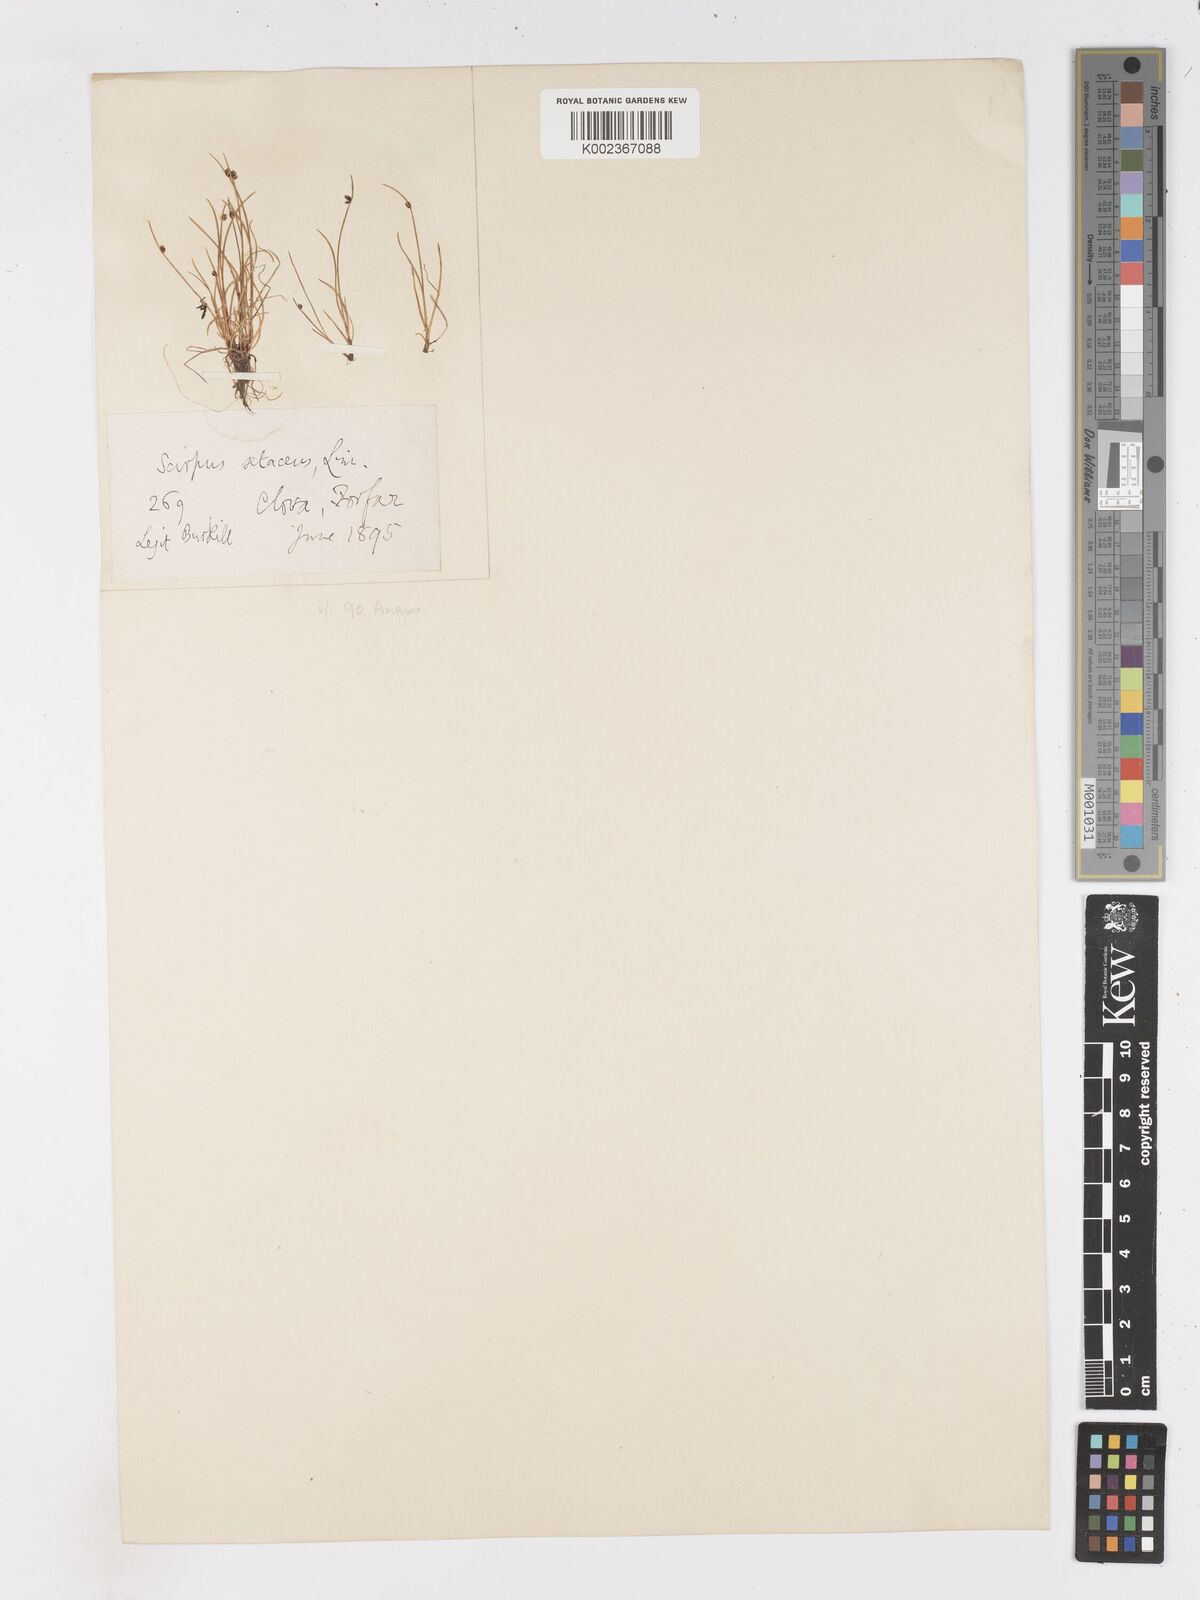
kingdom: Plantae
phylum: Tracheophyta
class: Liliopsida
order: Poales
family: Cyperaceae
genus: Isolepis
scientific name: Isolepis setacea
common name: Bristle club-rush
